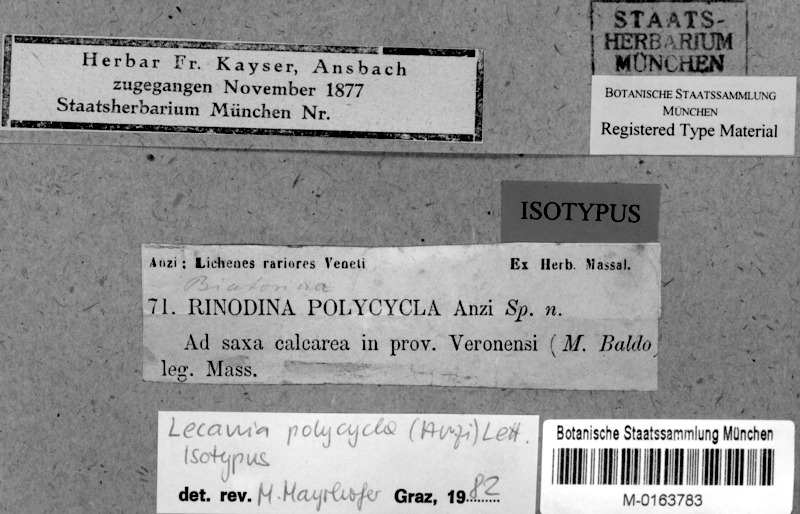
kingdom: Fungi
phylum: Ascomycota
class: Lecanoromycetes
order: Lecanorales
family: Ramalinaceae
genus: Lecania
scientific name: Lecania polycycla
